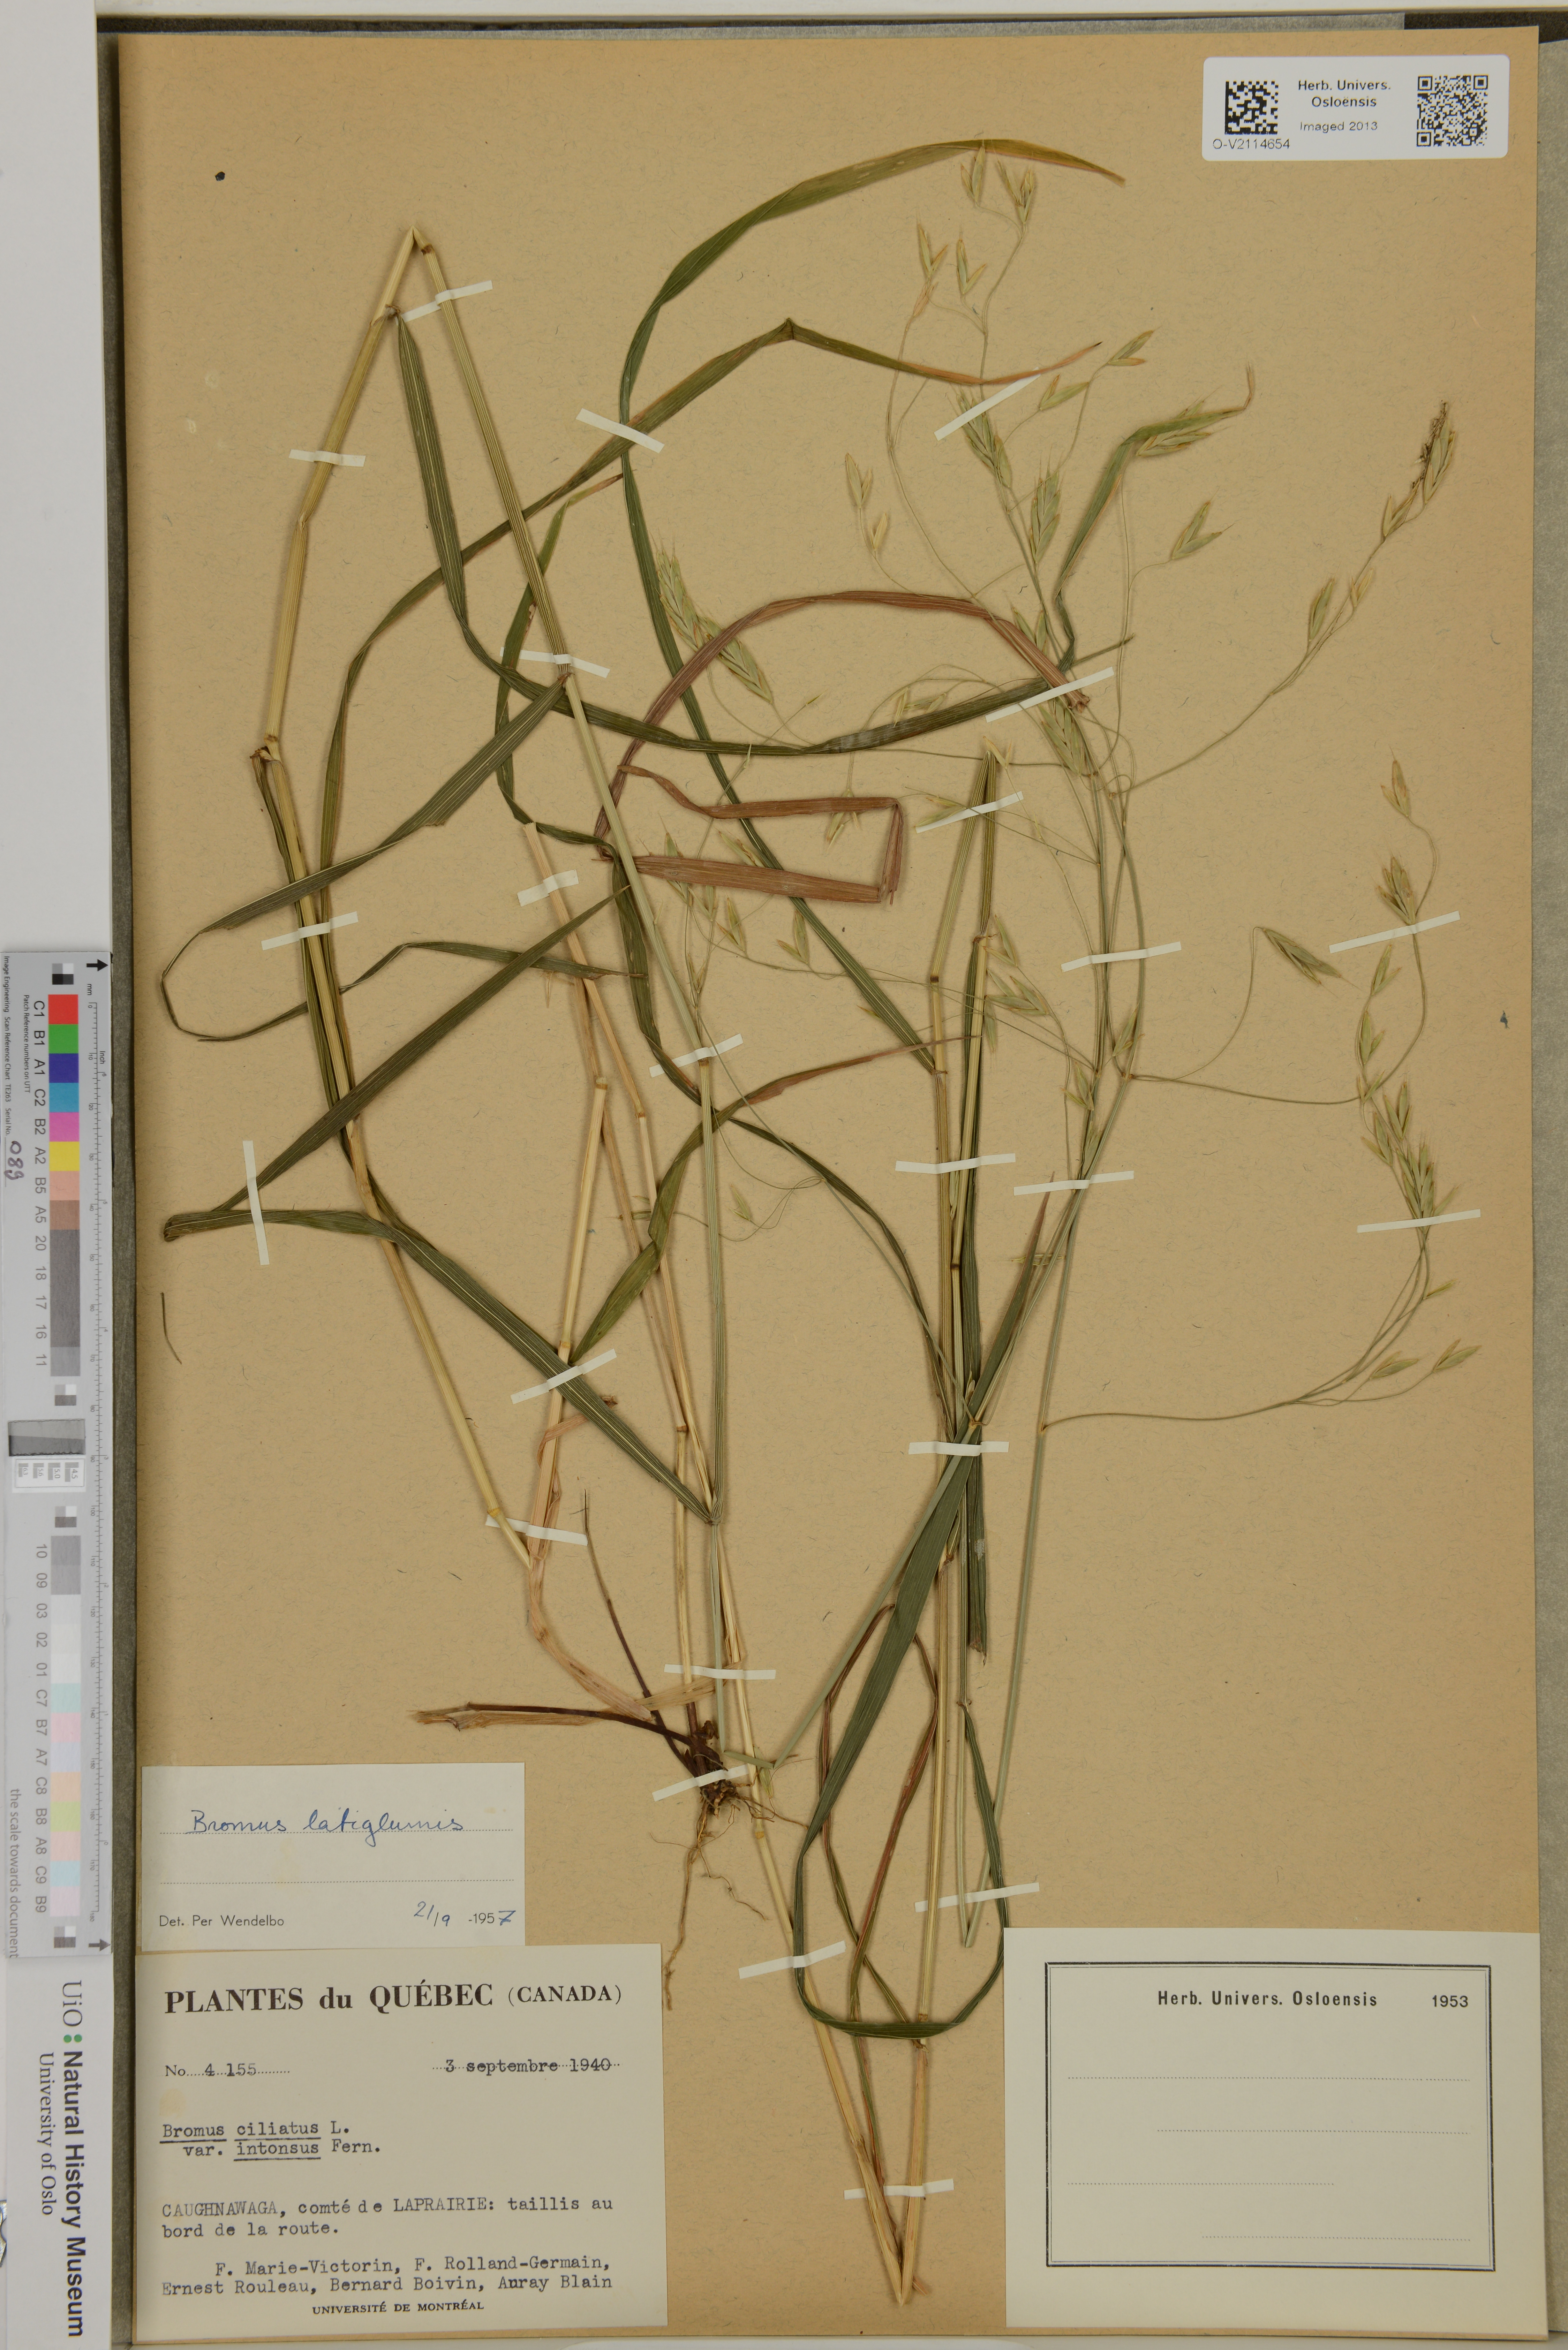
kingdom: Plantae
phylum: Tracheophyta
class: Liliopsida
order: Poales
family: Poaceae
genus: Bromus
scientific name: Bromus latiglumis
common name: Broad-glumed brome
